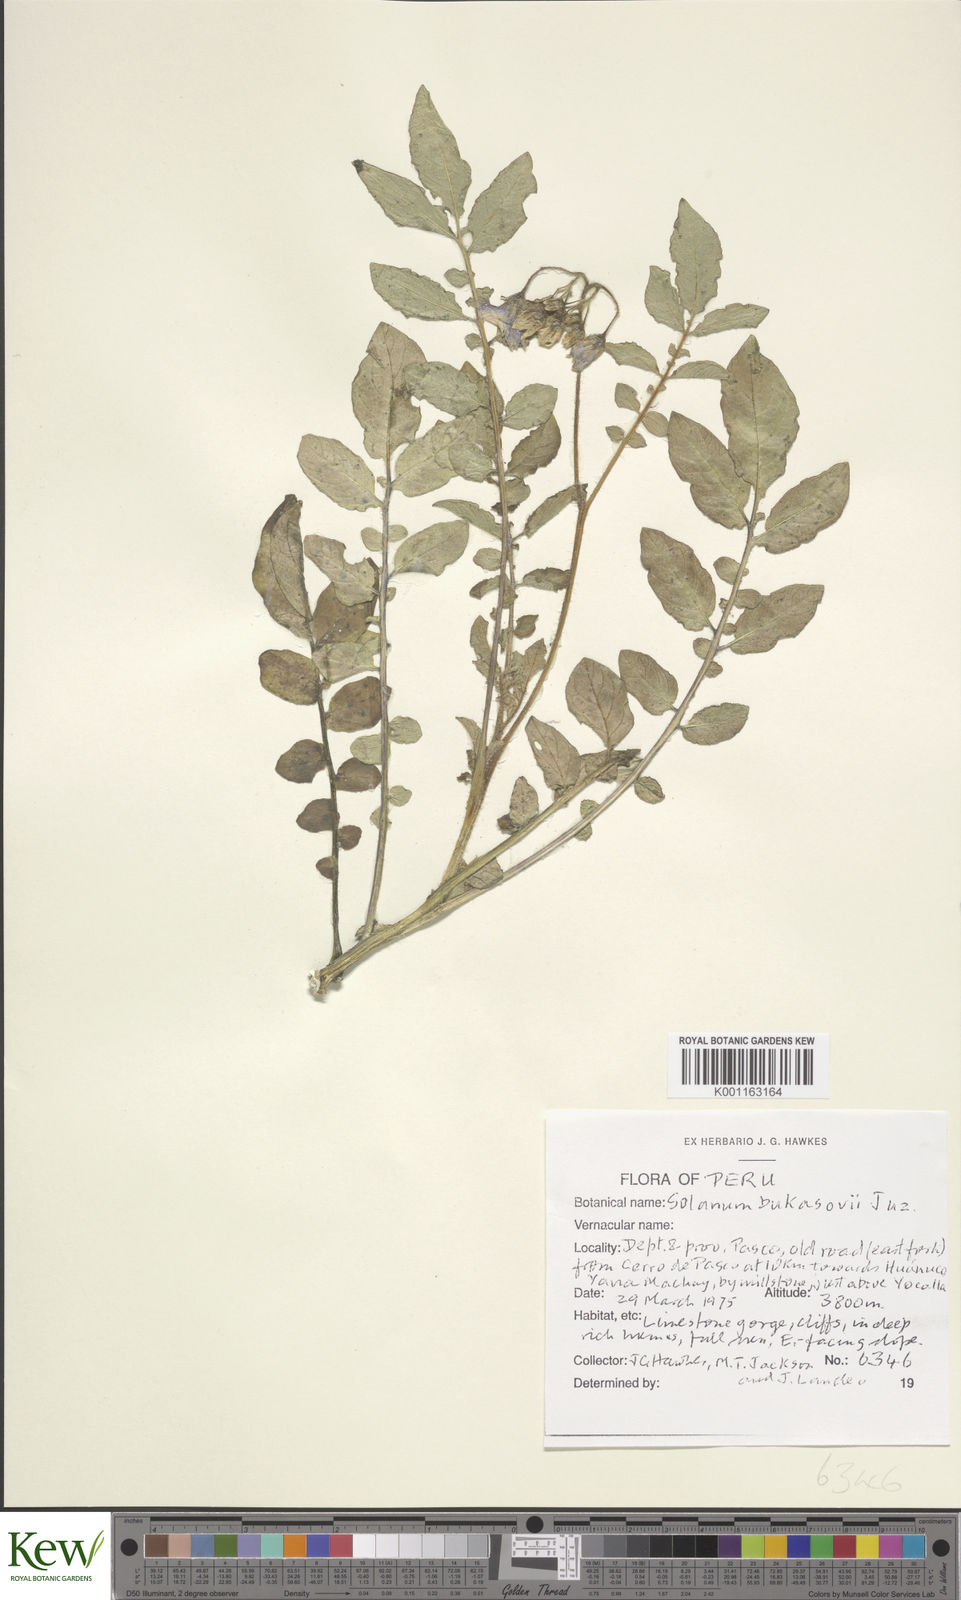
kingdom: Plantae
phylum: Tracheophyta
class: Magnoliopsida
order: Solanales
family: Solanaceae
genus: Solanum
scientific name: Solanum candolleanum
